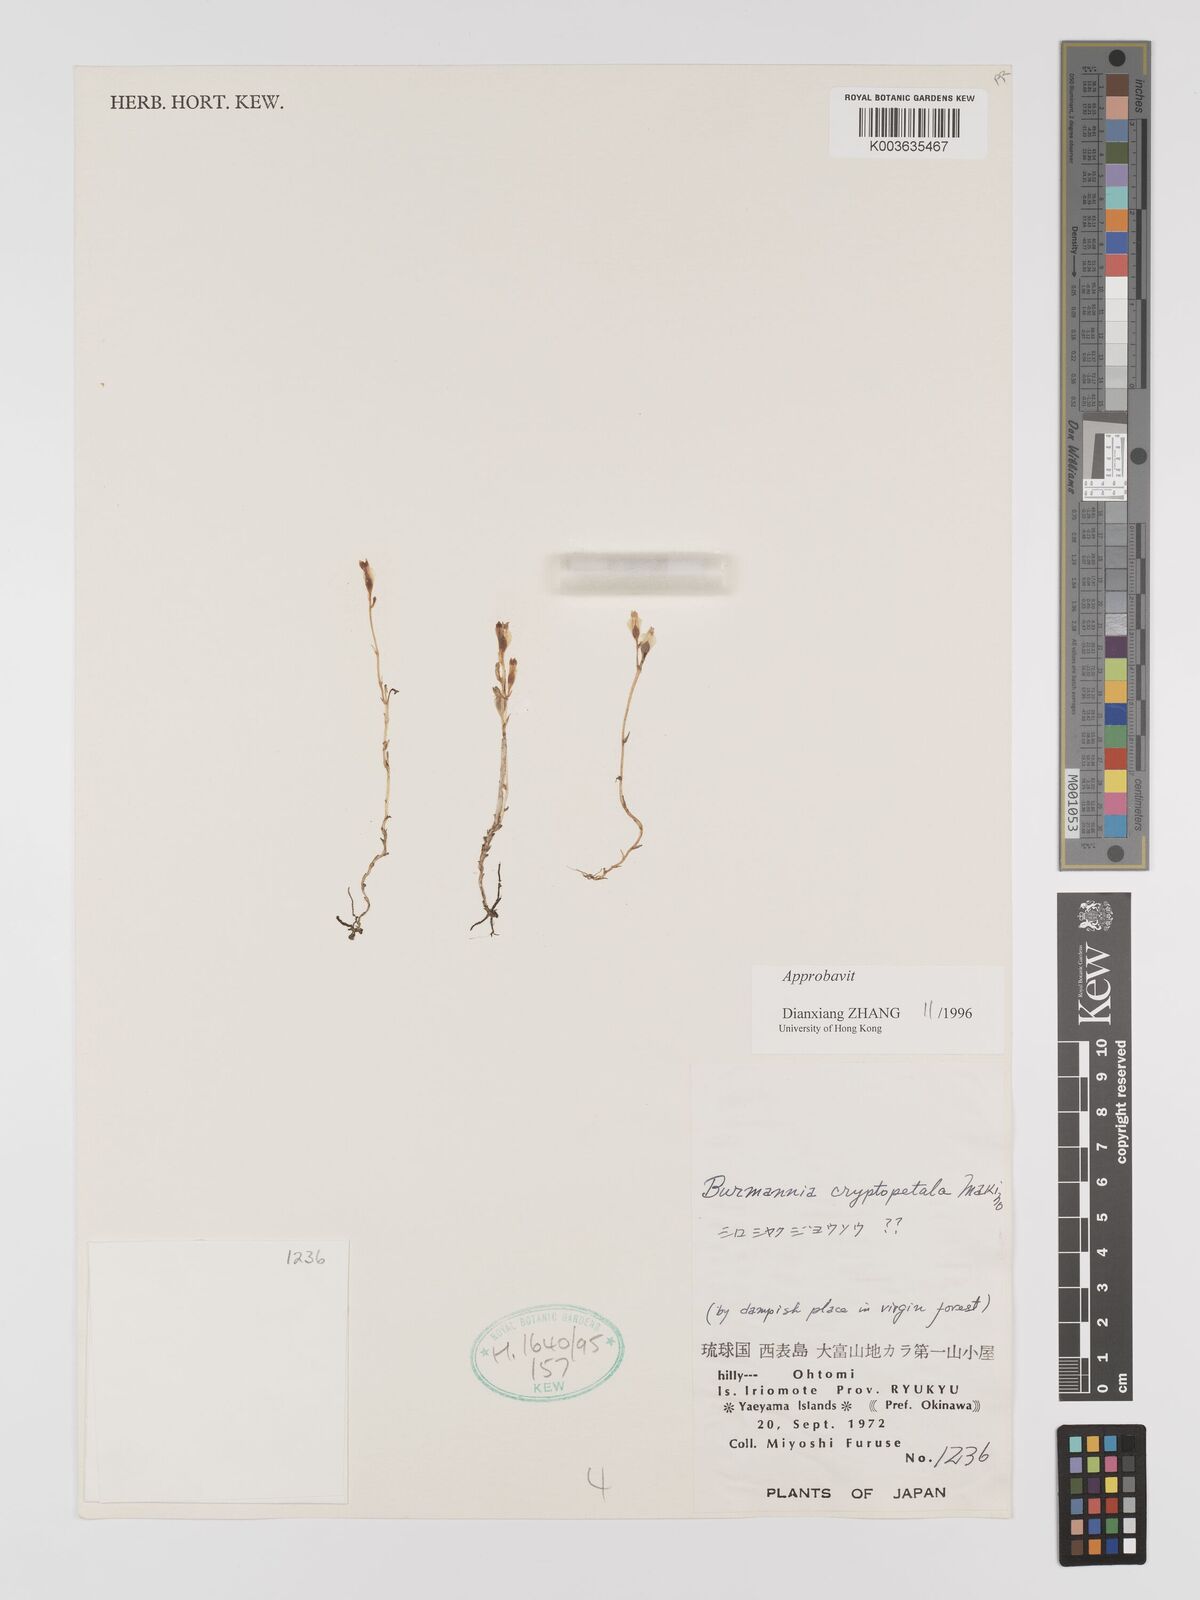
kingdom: Plantae
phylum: Tracheophyta
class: Liliopsida
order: Dioscoreales
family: Burmanniaceae
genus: Burmannia
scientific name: Burmannia cryptopetala
